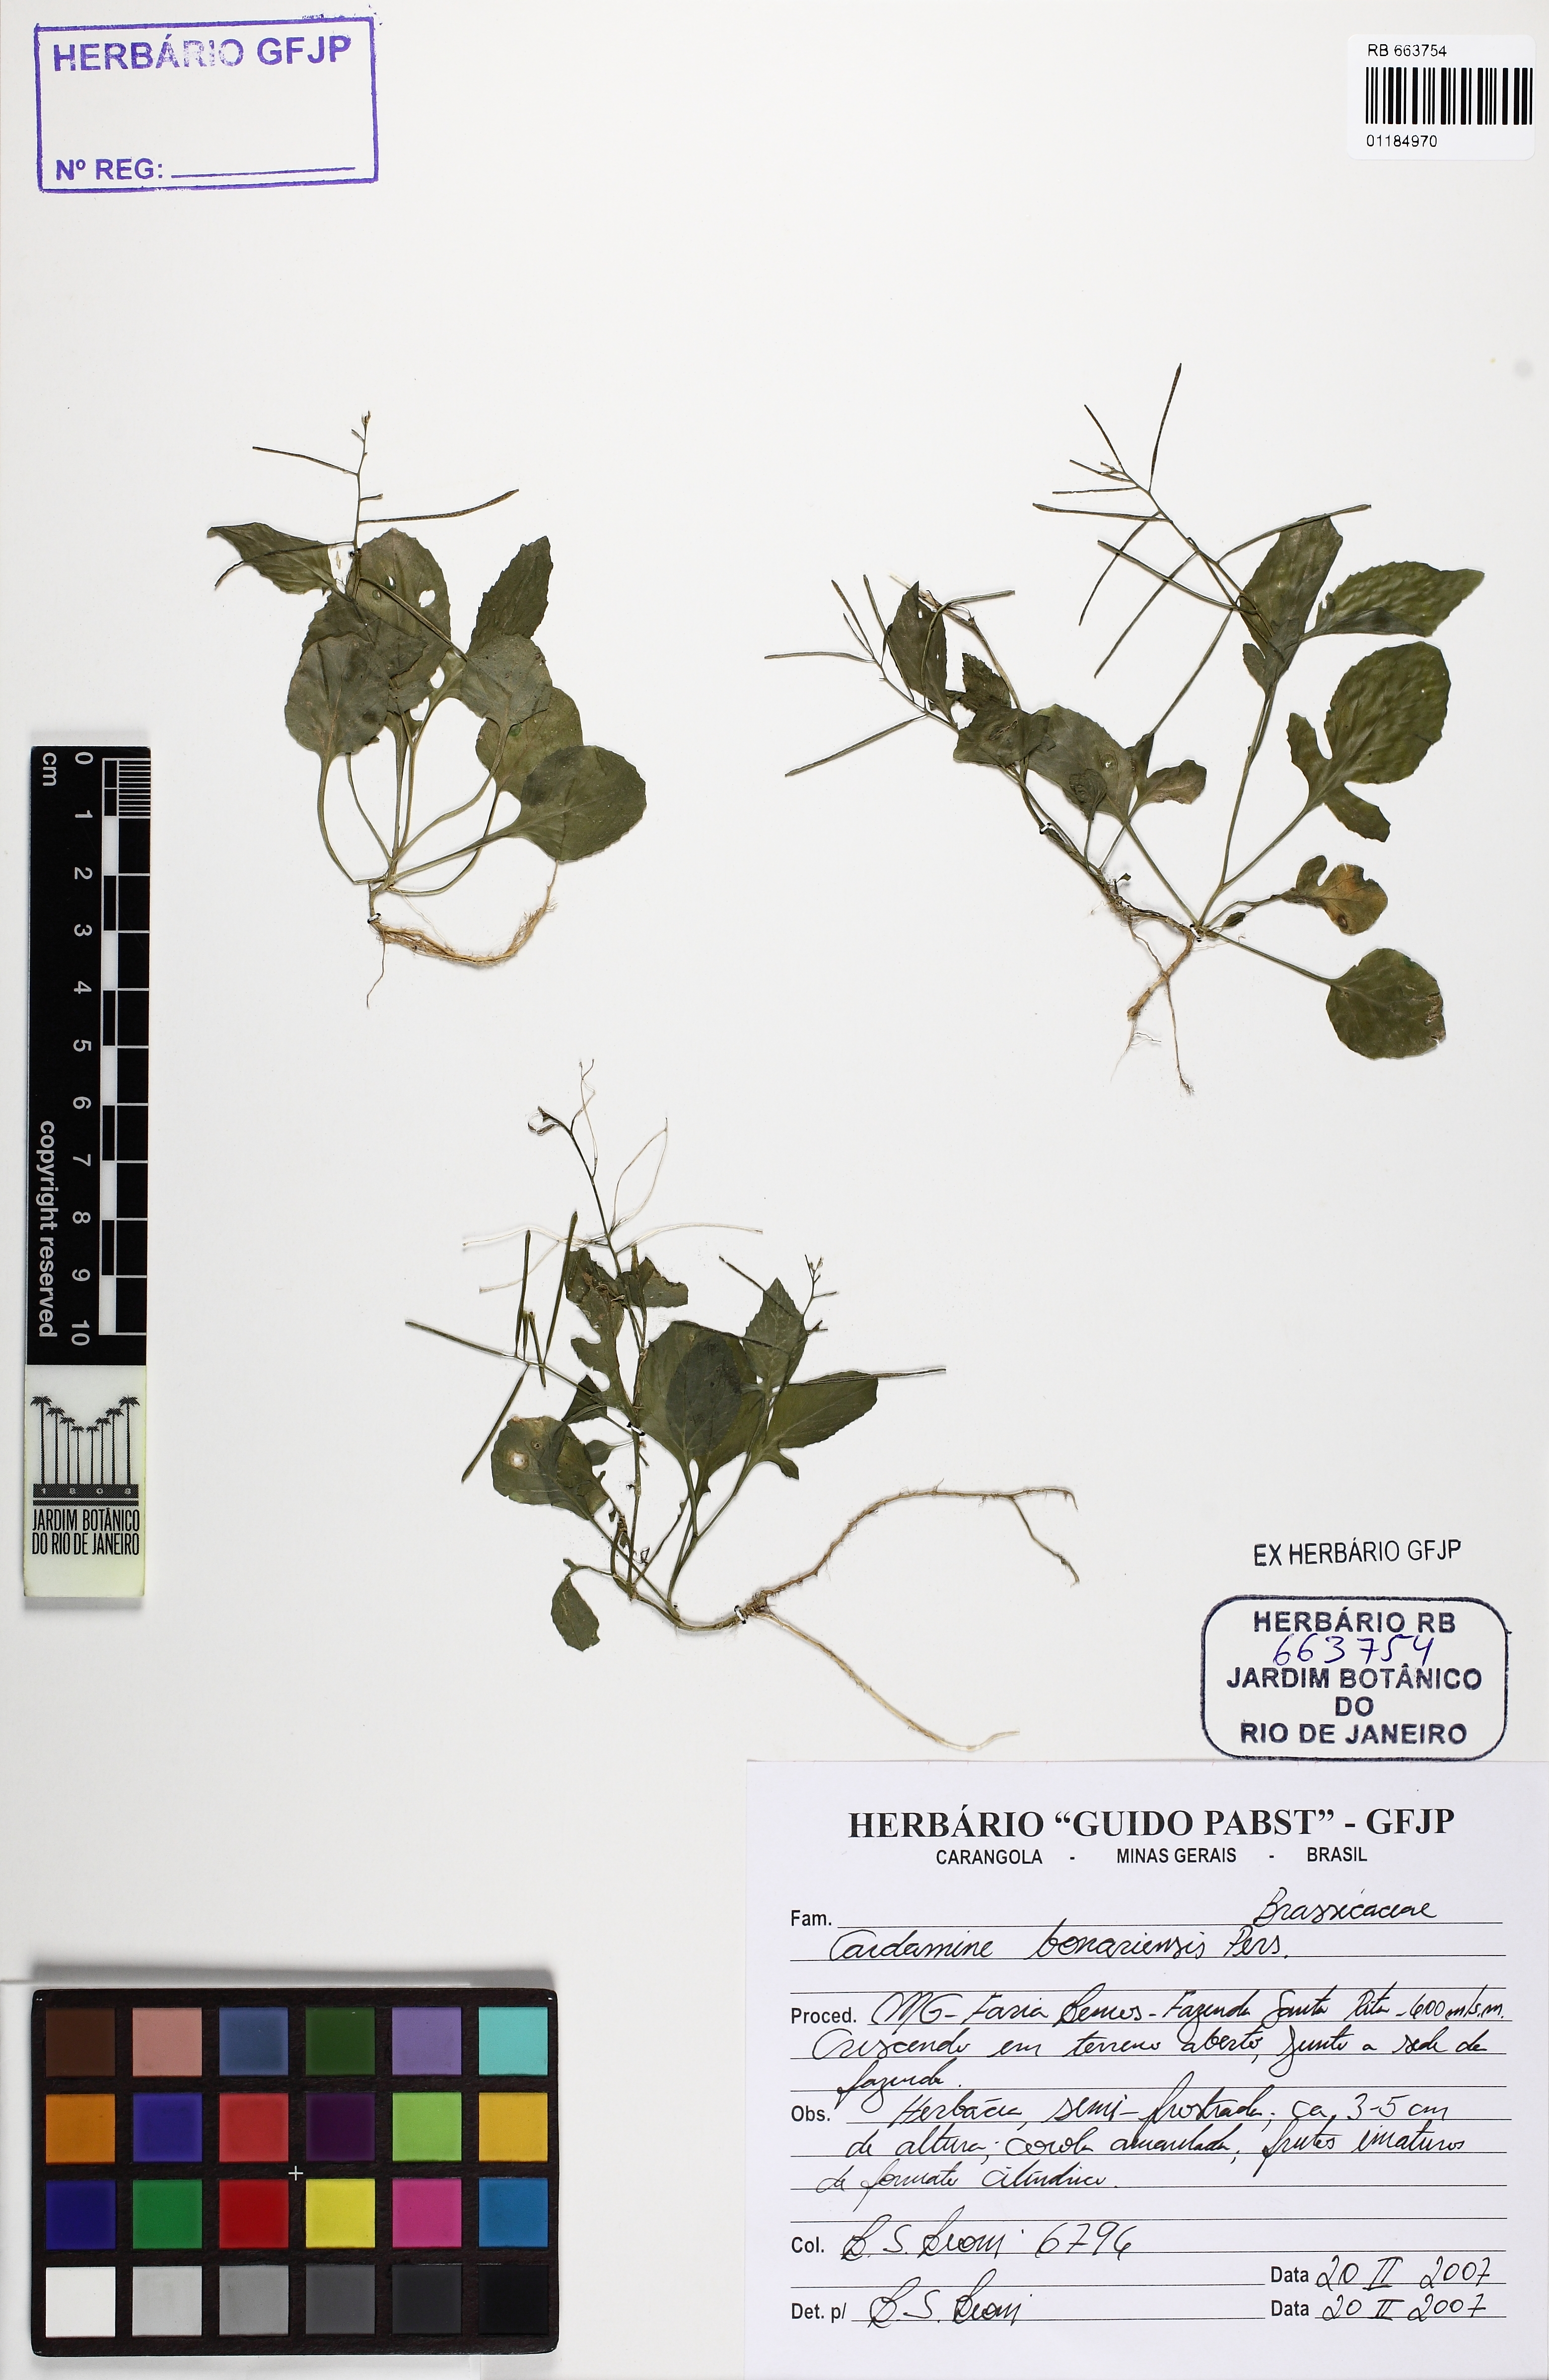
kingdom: Plantae
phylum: Tracheophyta
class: Magnoliopsida
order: Brassicales
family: Brassicaceae
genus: Cardamine
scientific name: Cardamine bonariensis
